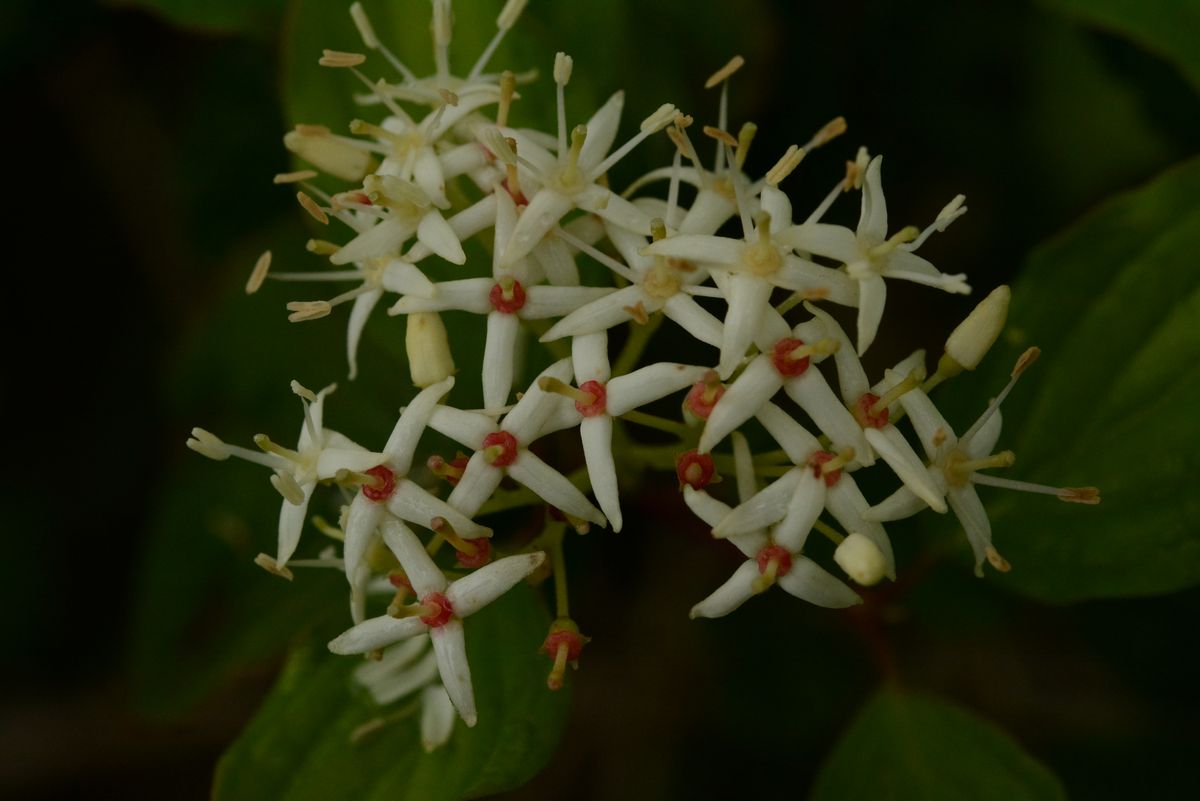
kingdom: Plantae
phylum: Tracheophyta
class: Magnoliopsida
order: Cornales
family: Cornaceae
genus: Cornus
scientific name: Cornus sanguinea
